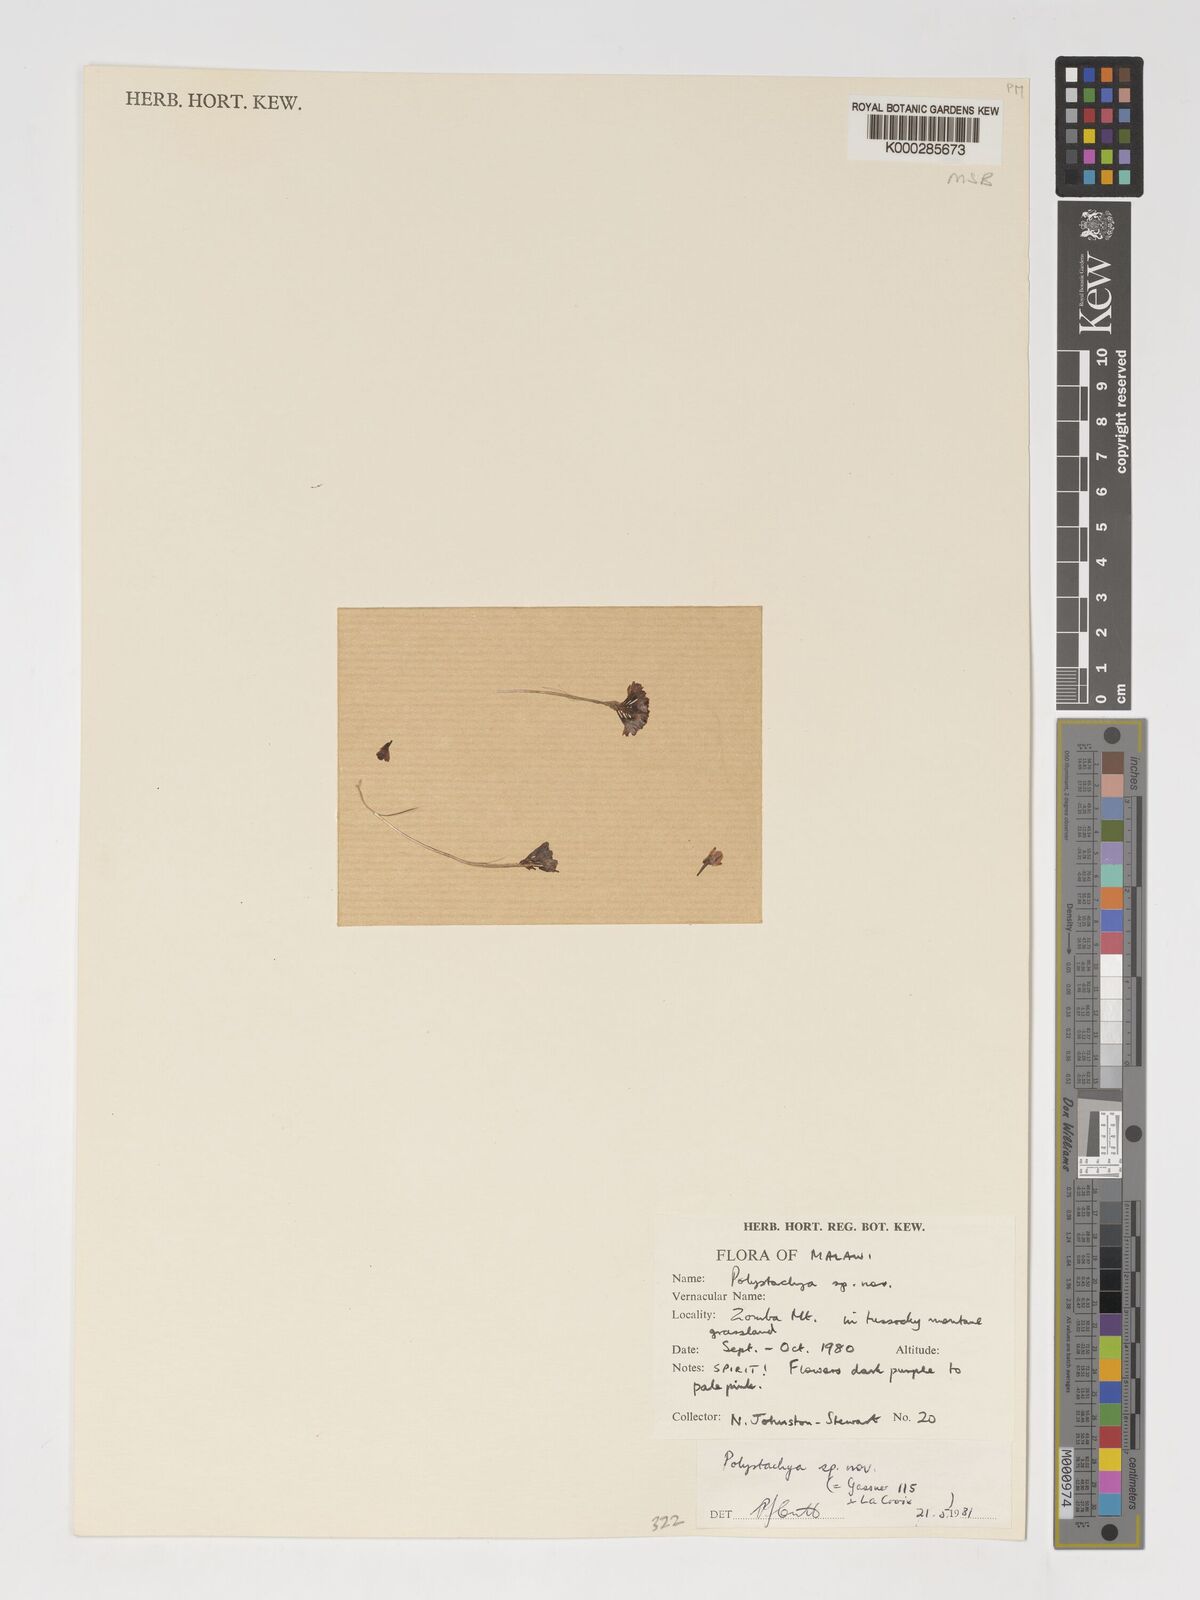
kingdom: Plantae
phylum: Tracheophyta
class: Liliopsida
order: Asparagales
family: Orchidaceae
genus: Polystachya
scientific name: Polystachya songaniensis
